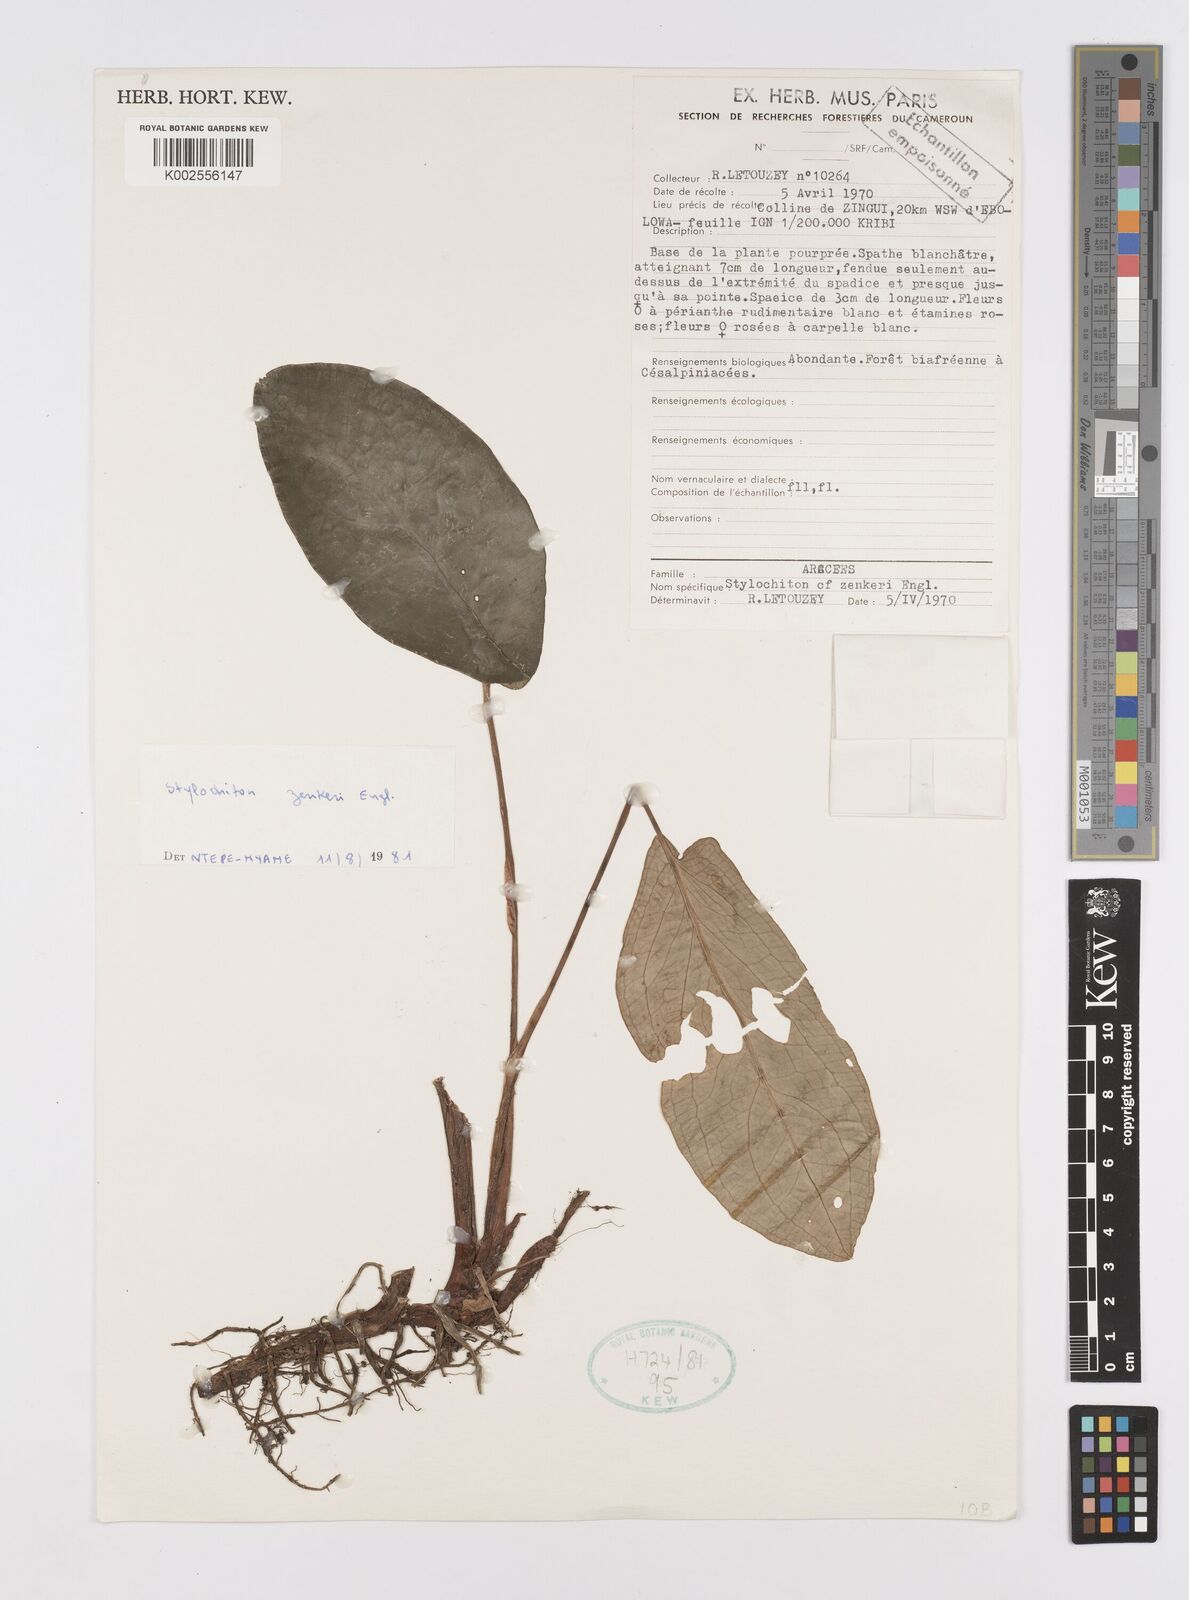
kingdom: Plantae
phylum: Tracheophyta
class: Liliopsida
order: Alismatales
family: Araceae
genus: Stylochaeton
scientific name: Stylochaeton zenkeri
